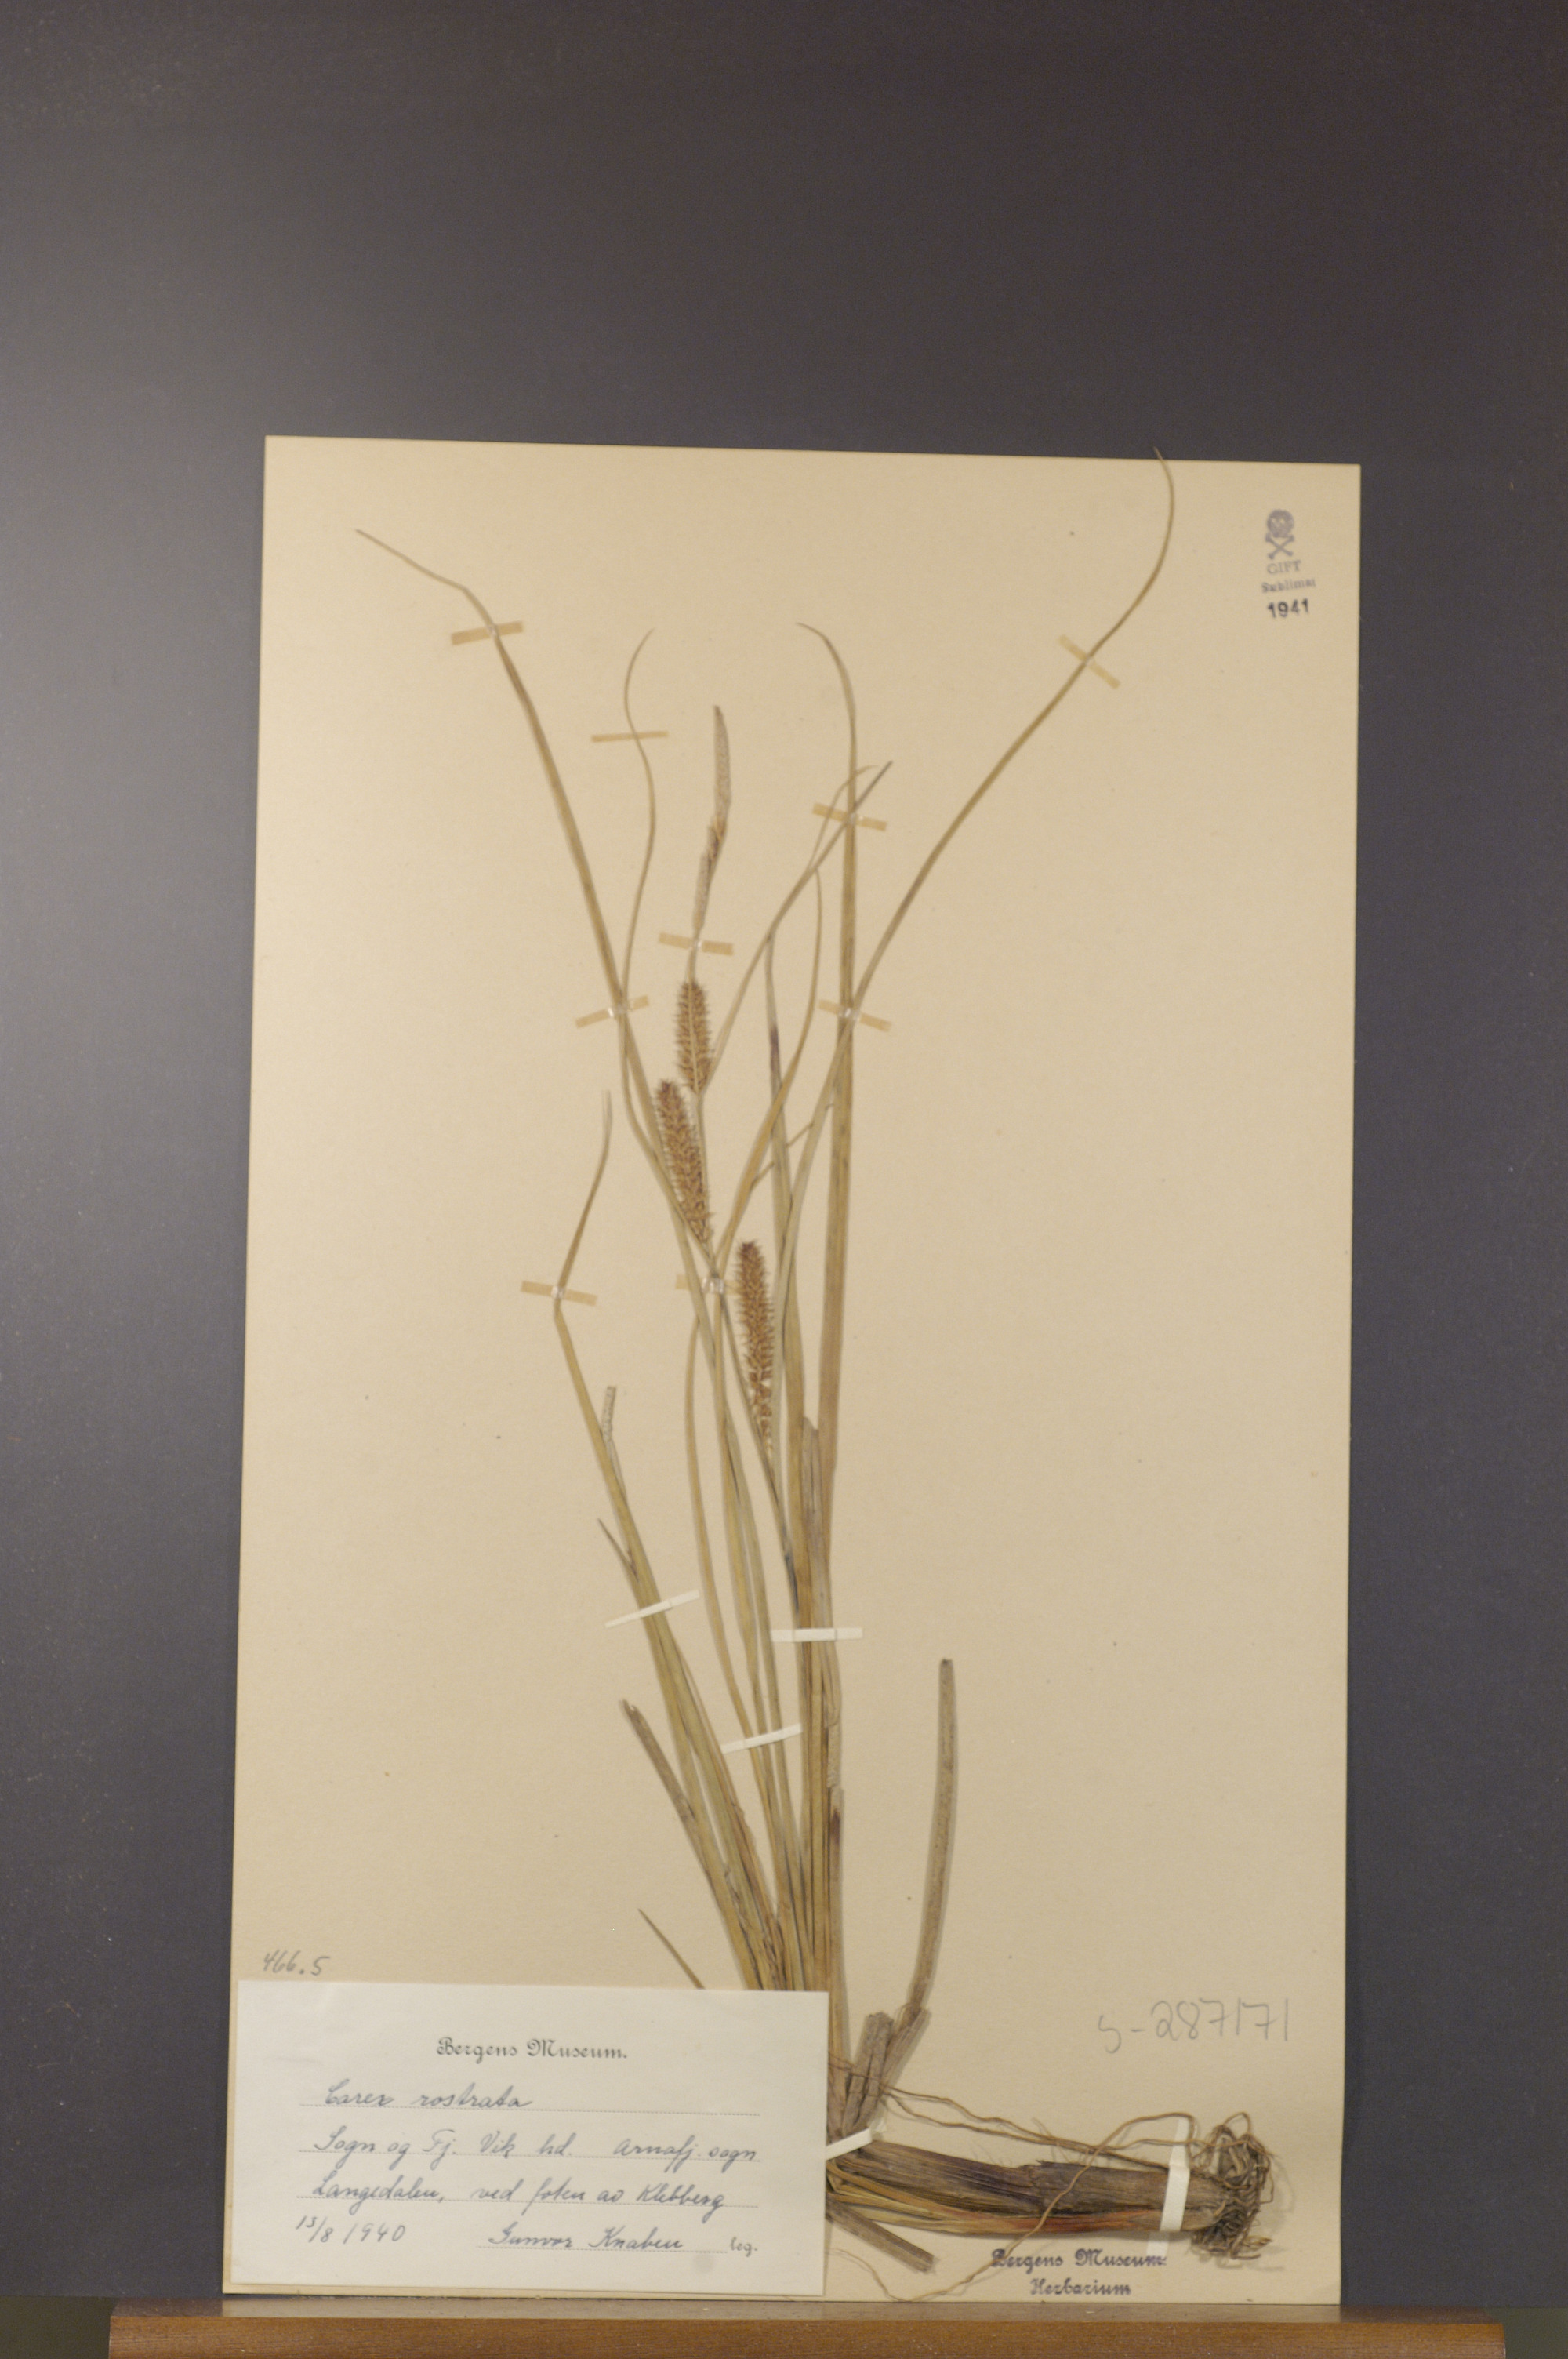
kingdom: Plantae
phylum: Tracheophyta
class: Liliopsida
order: Poales
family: Cyperaceae
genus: Carex
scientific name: Carex rostrata
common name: Bottle sedge
